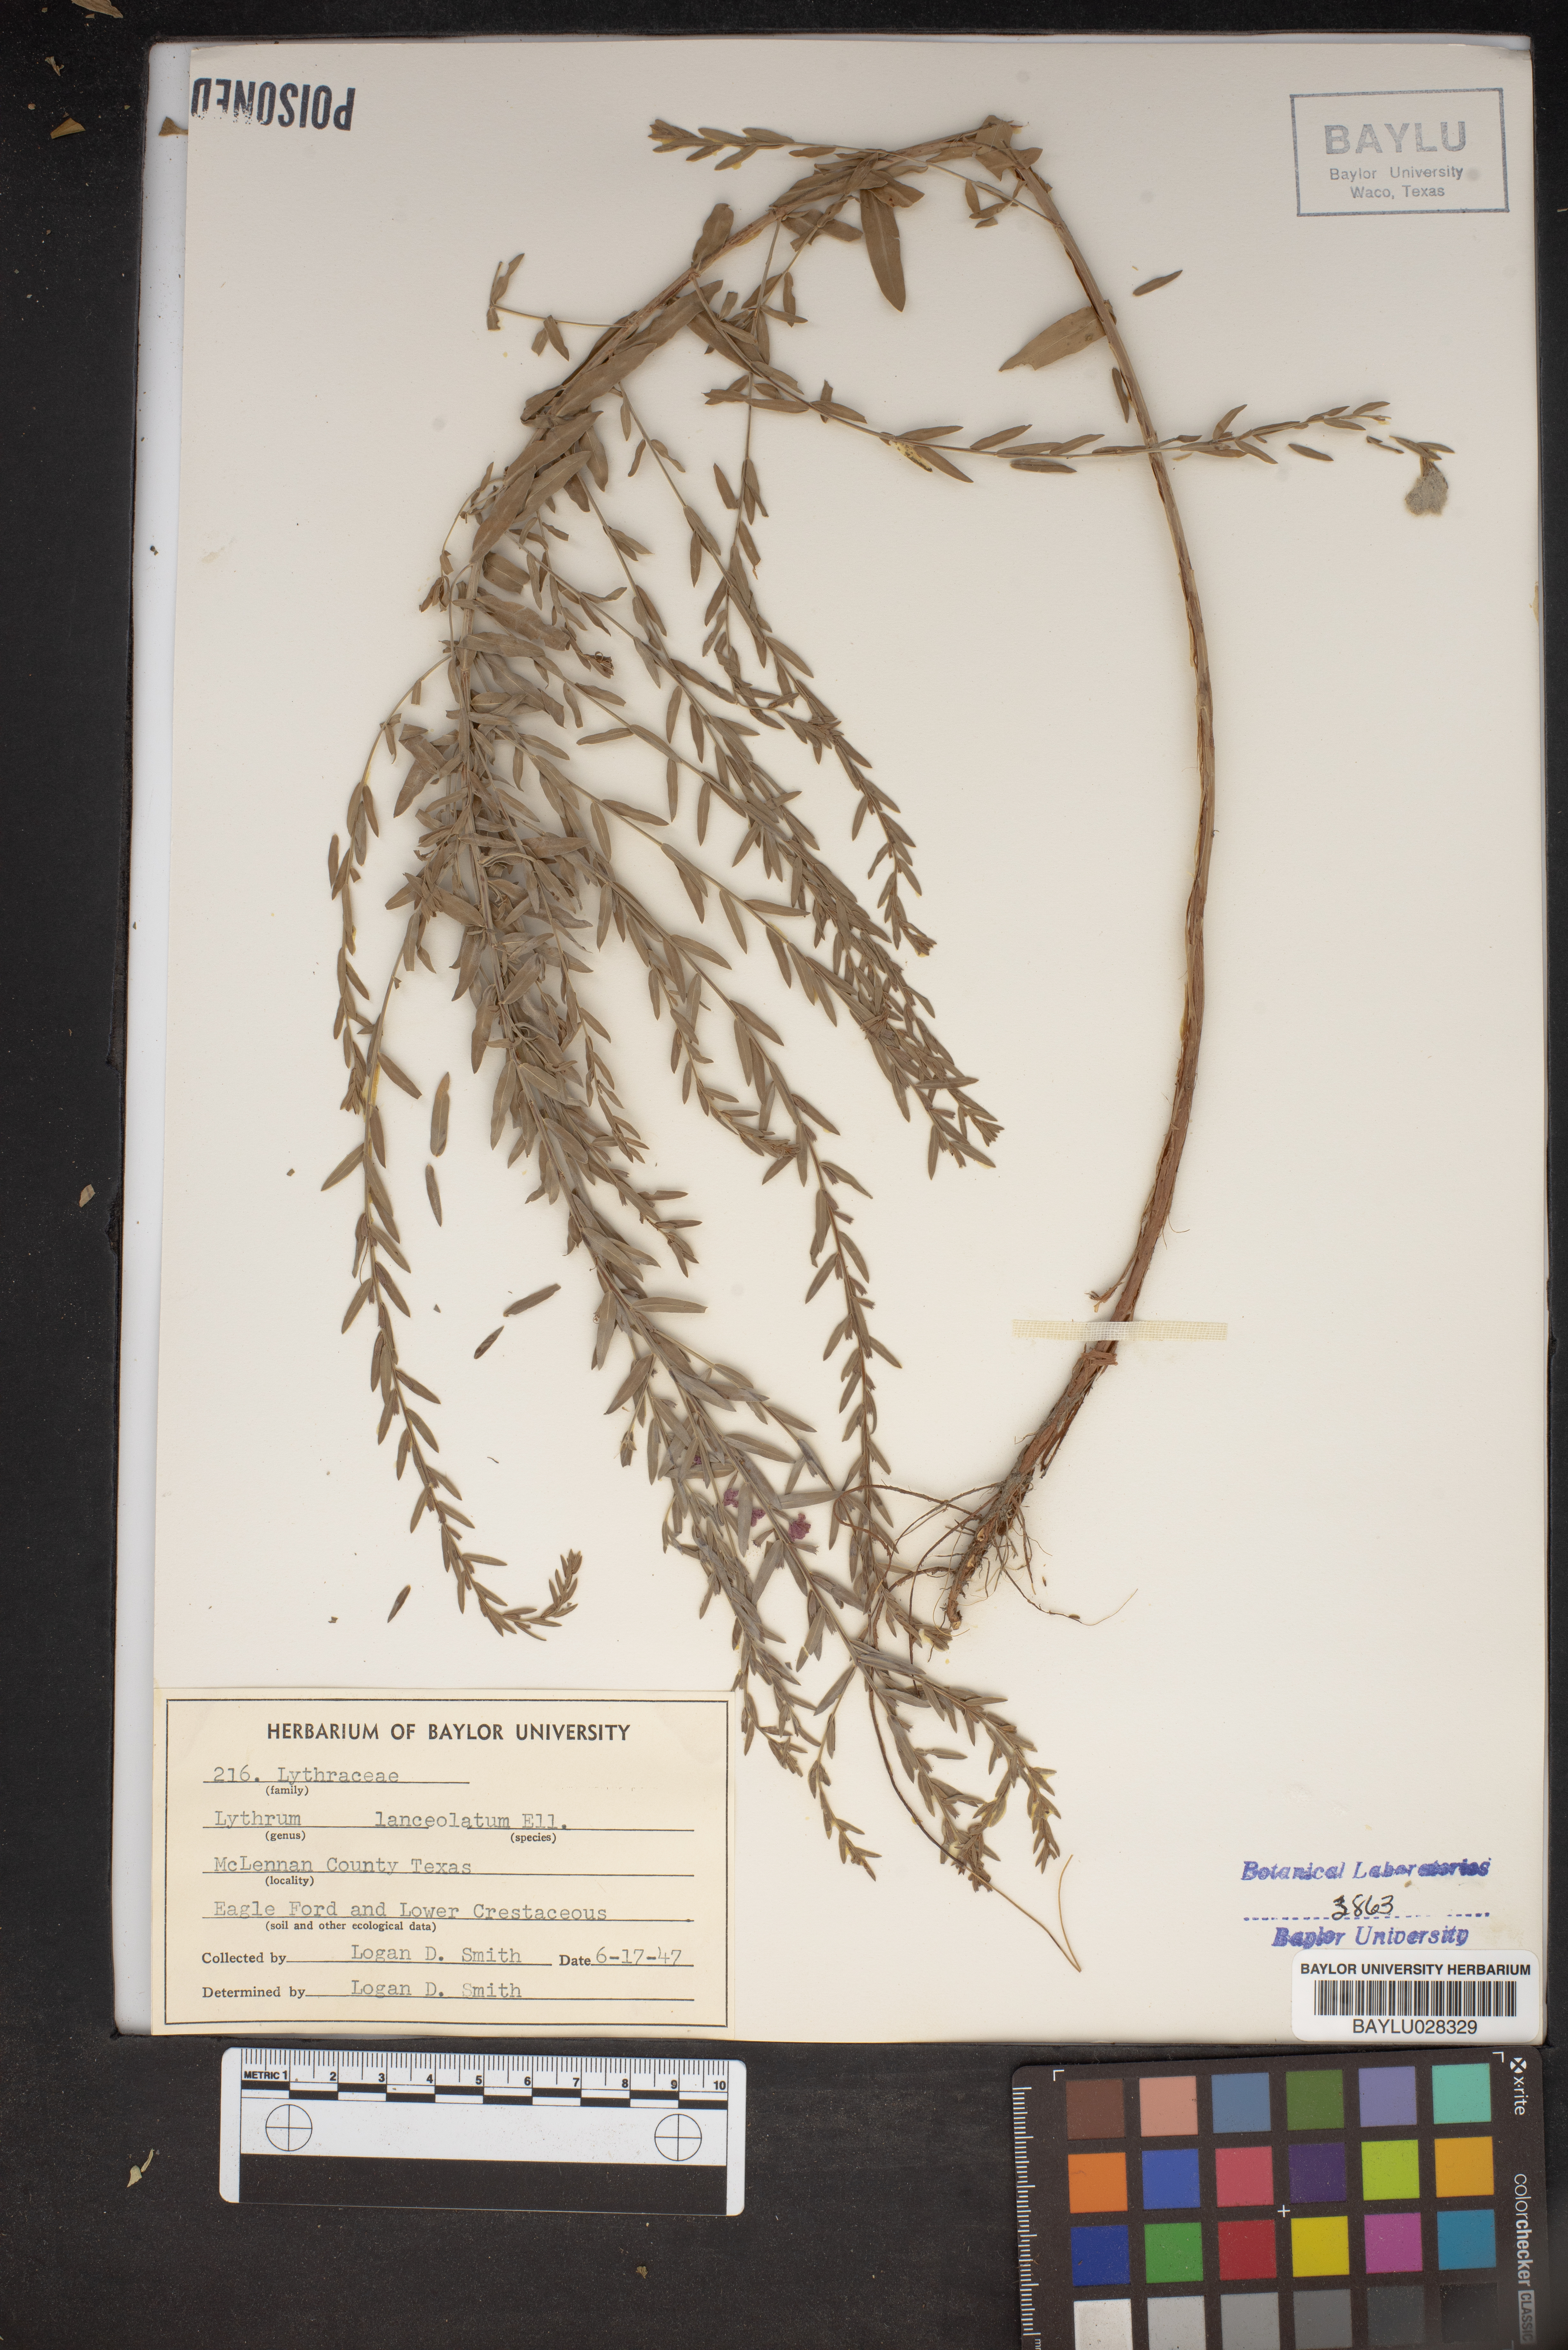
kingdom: Plantae
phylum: Tracheophyta
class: Magnoliopsida
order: Myrtales
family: Lythraceae
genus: Lythrum
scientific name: Lythrum alatum
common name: Winged loosestrife
